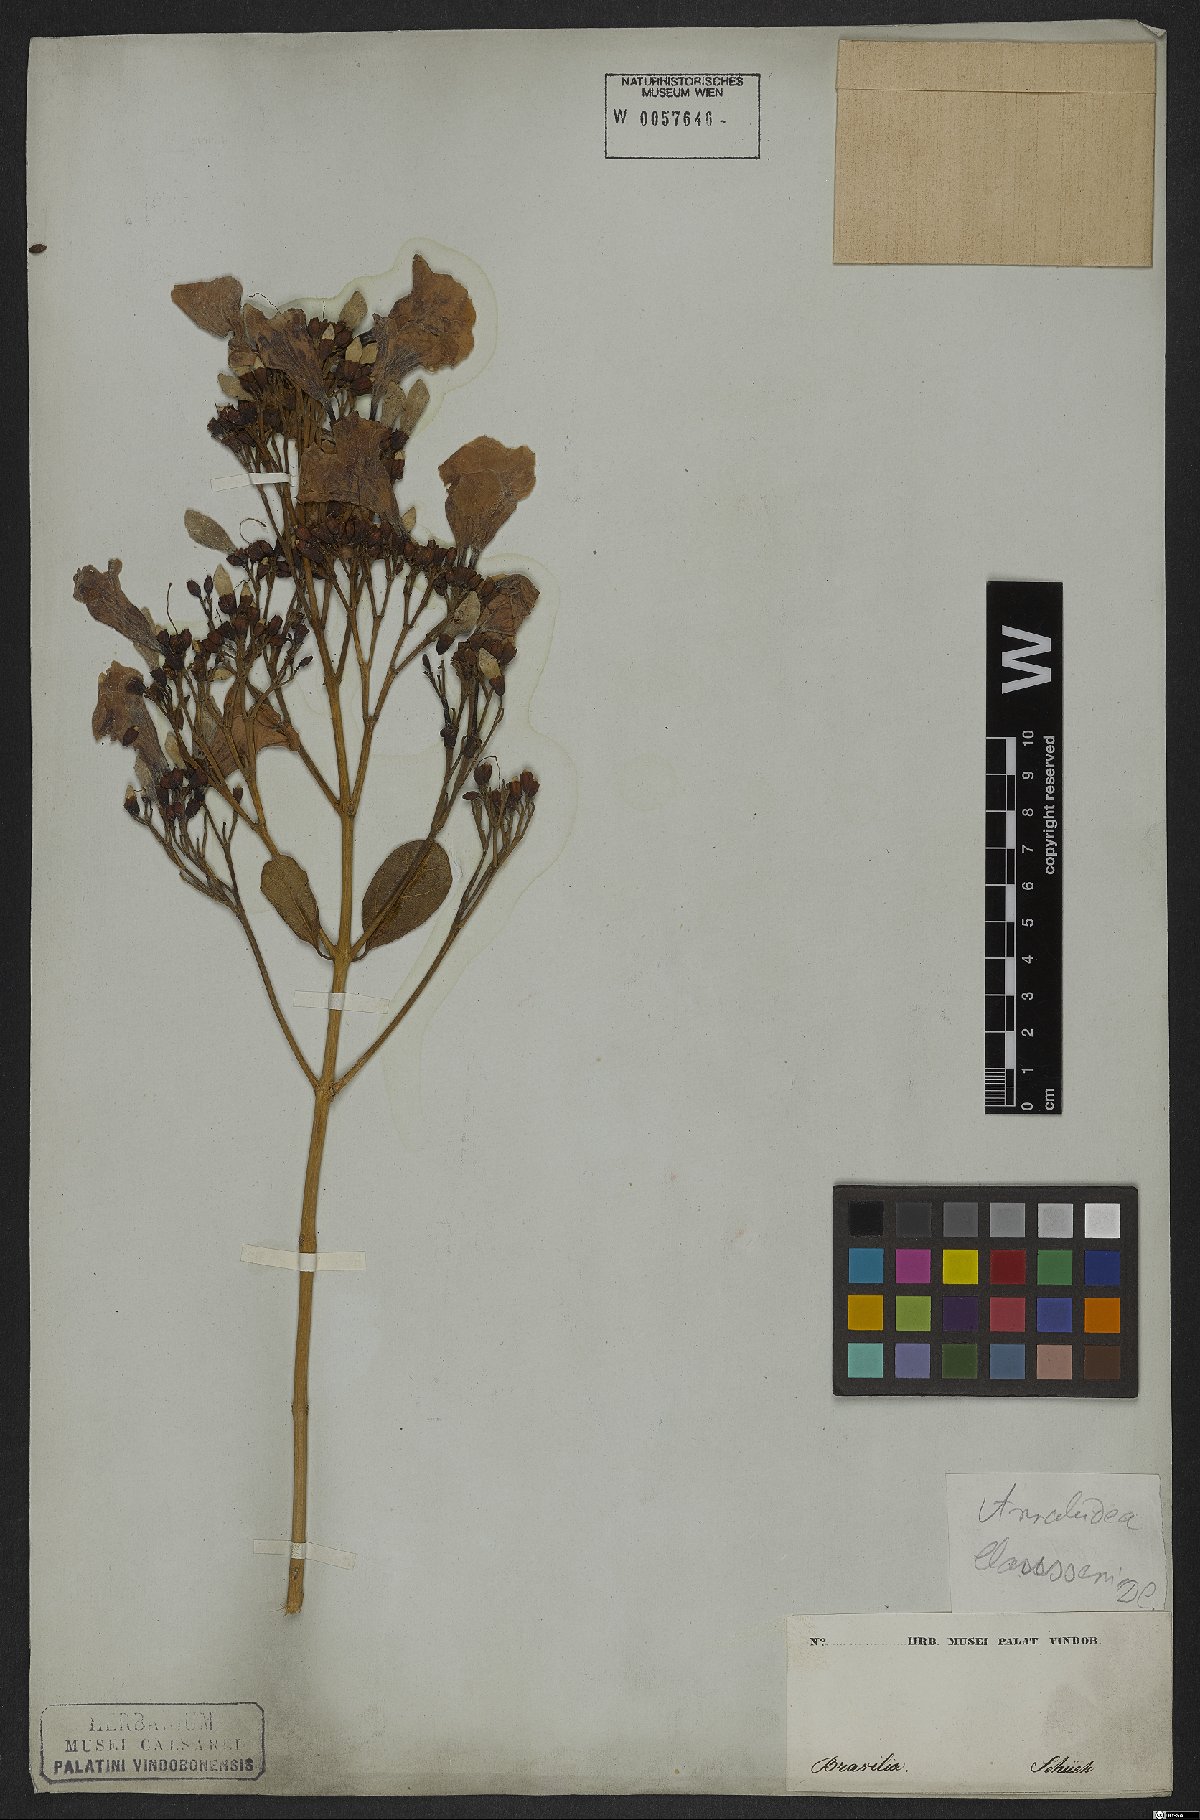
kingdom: Plantae
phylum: Tracheophyta
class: Magnoliopsida
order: Lamiales
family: Bignoniaceae
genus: Xylophragma
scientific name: Xylophragma claussenii
